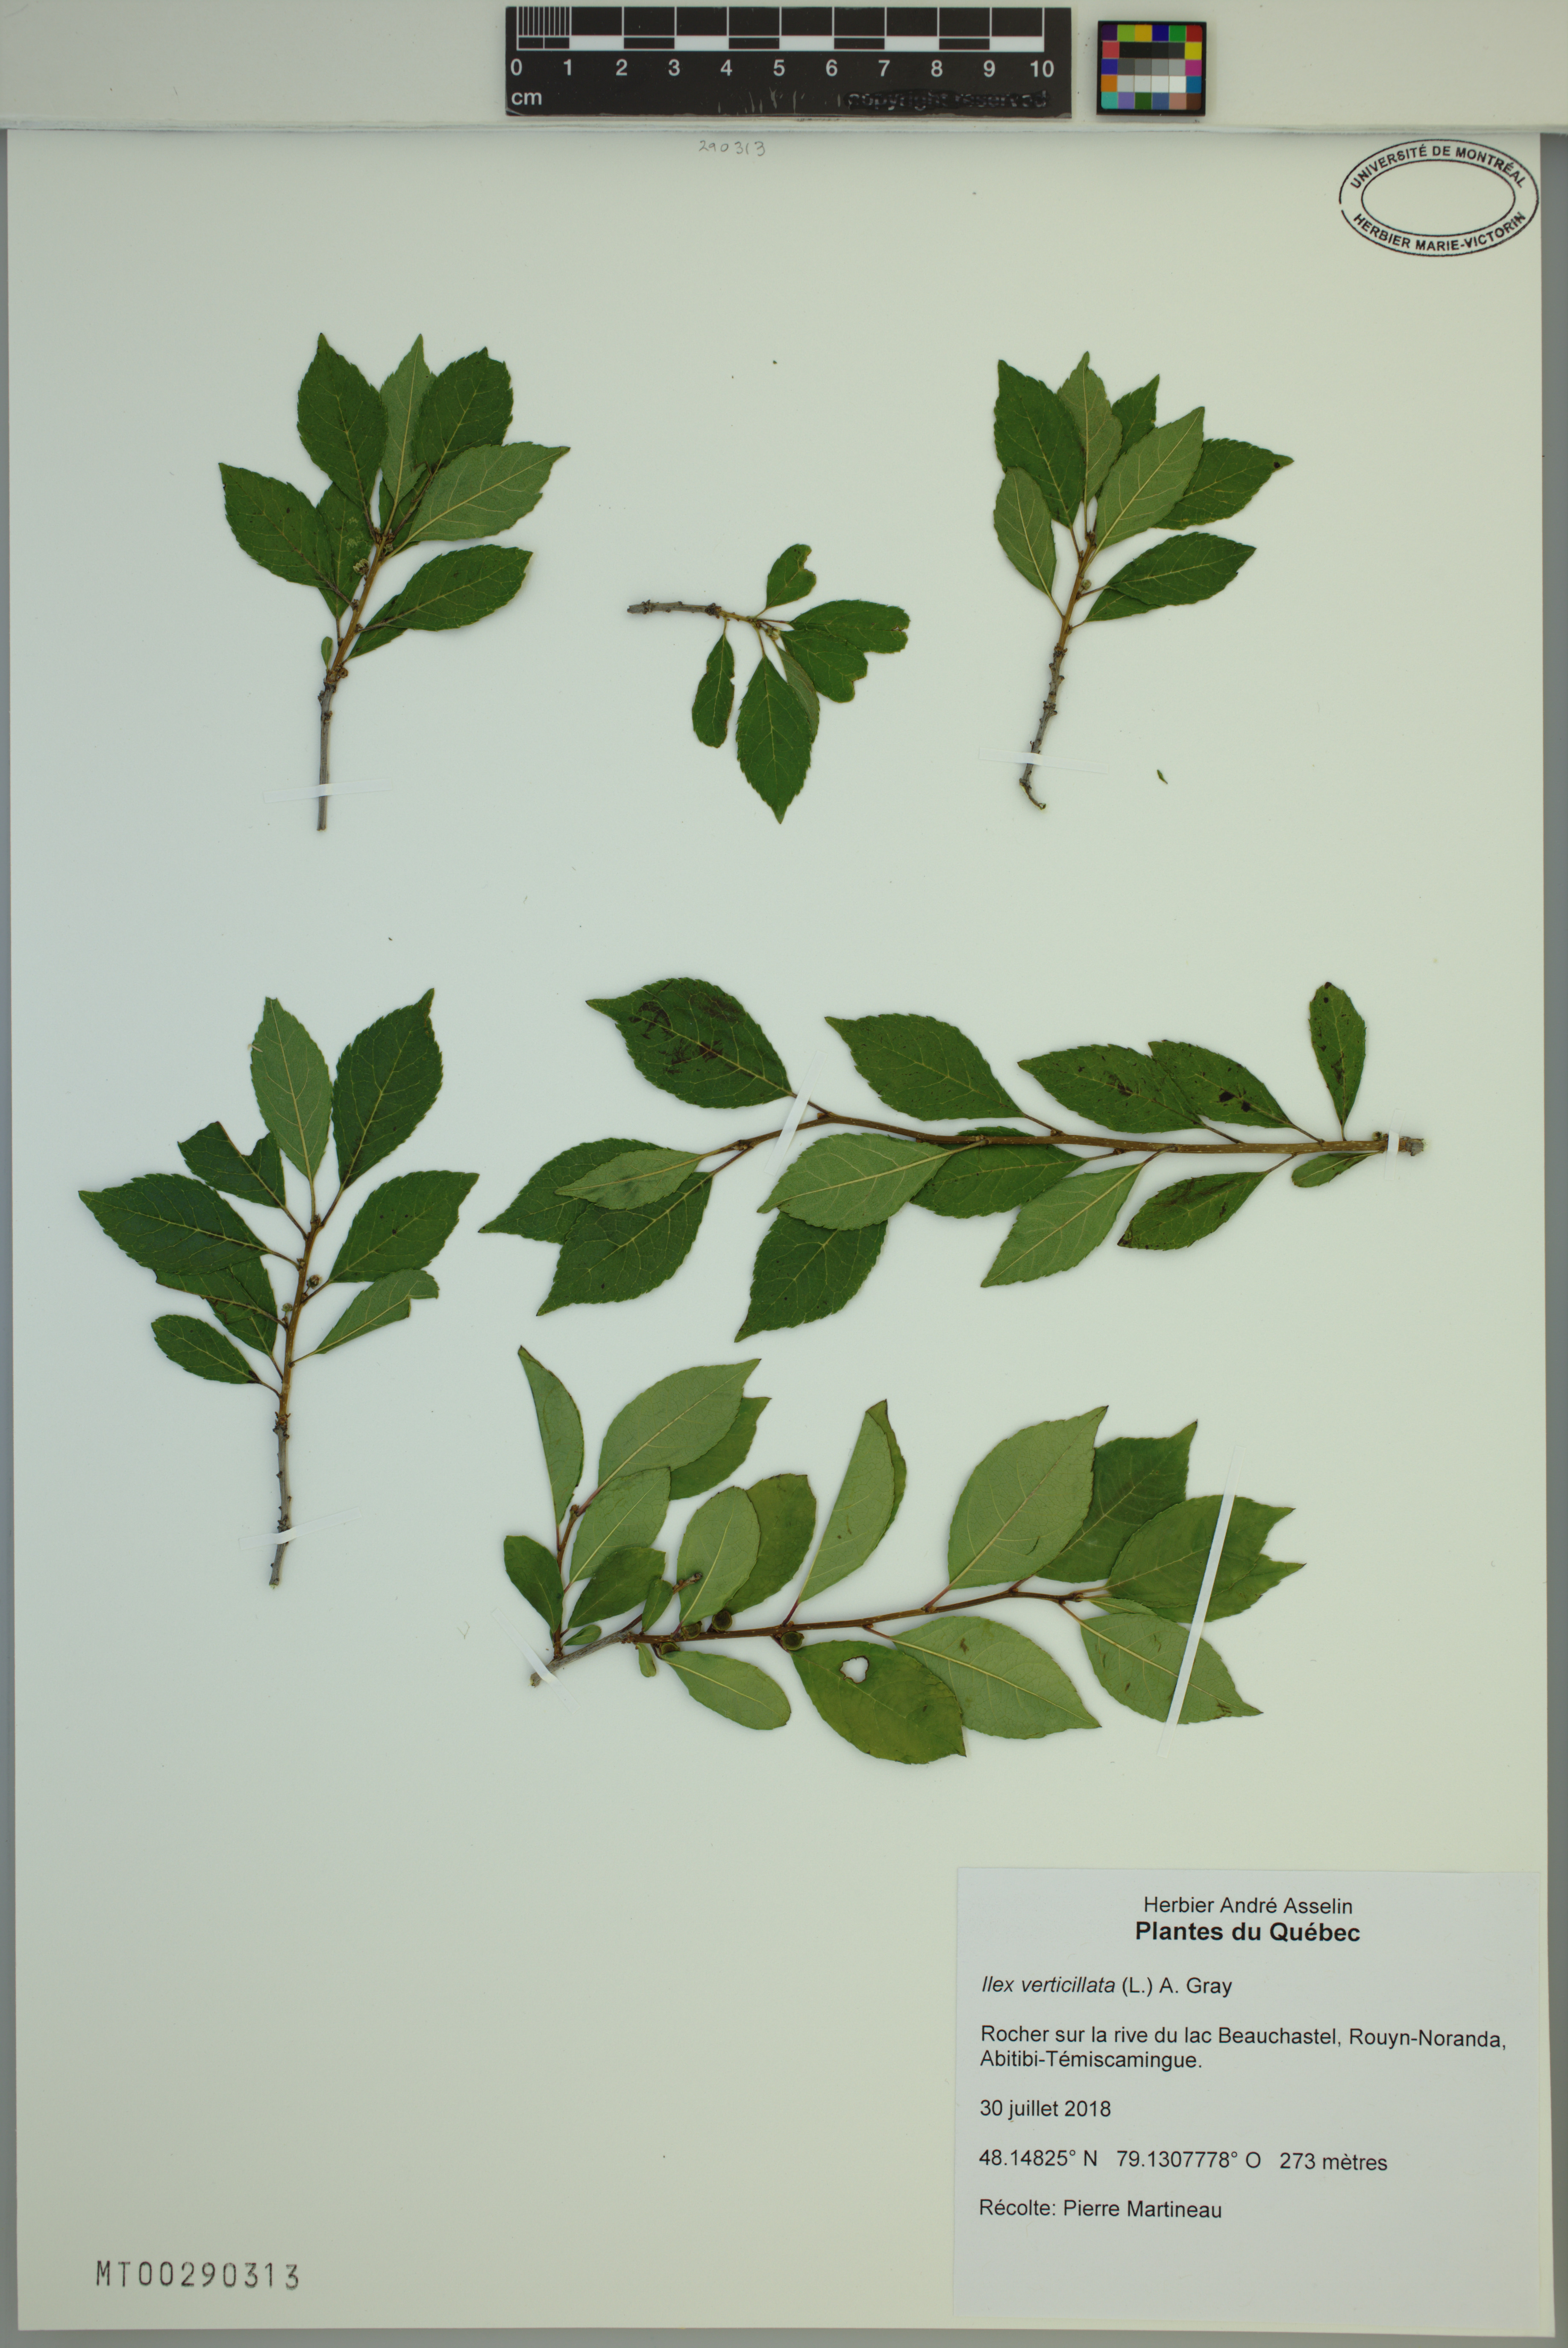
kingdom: Plantae
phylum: Tracheophyta
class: Magnoliopsida
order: Aquifoliales
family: Aquifoliaceae
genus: Ilex
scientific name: Ilex verticillata
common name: Virginia winterberry
